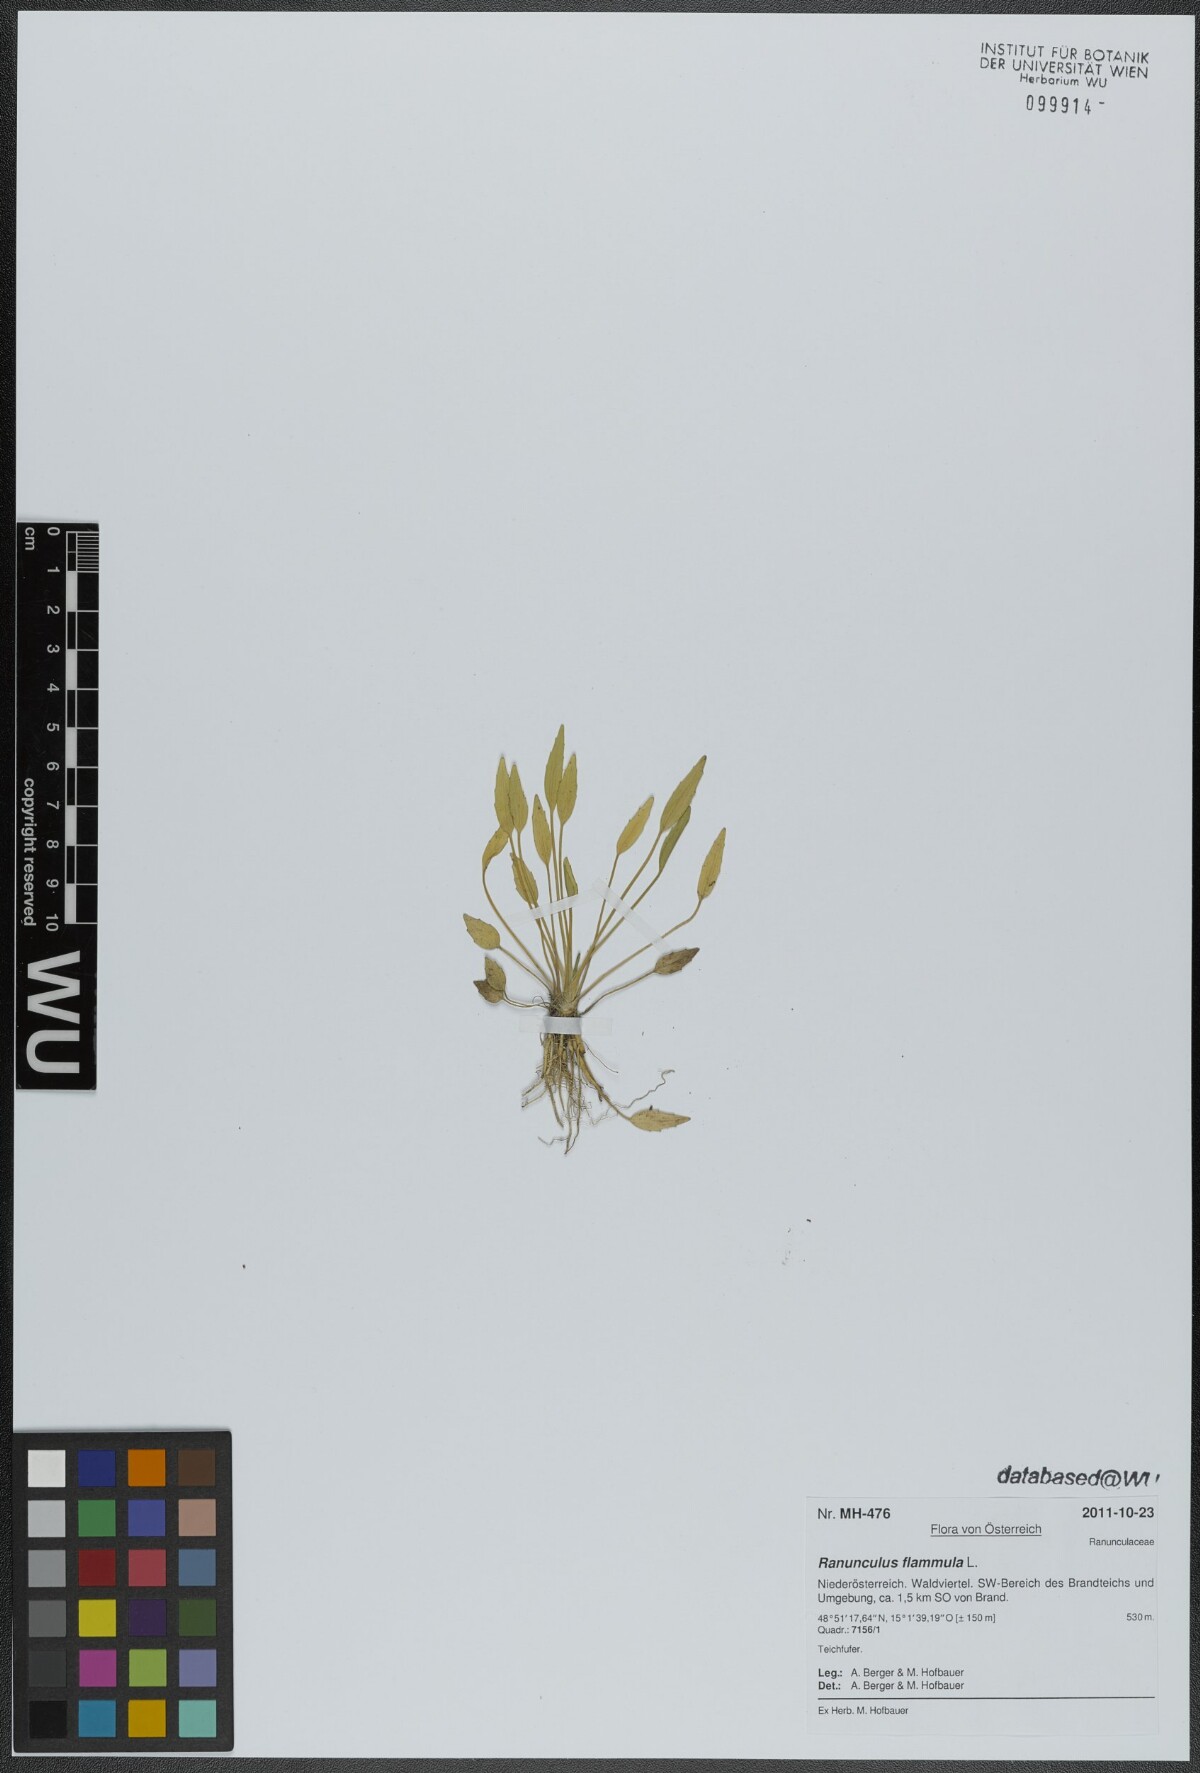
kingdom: Plantae
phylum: Tracheophyta
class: Magnoliopsida
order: Ranunculales
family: Ranunculaceae
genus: Ranunculus
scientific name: Ranunculus flammula
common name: Lesser spearwort
